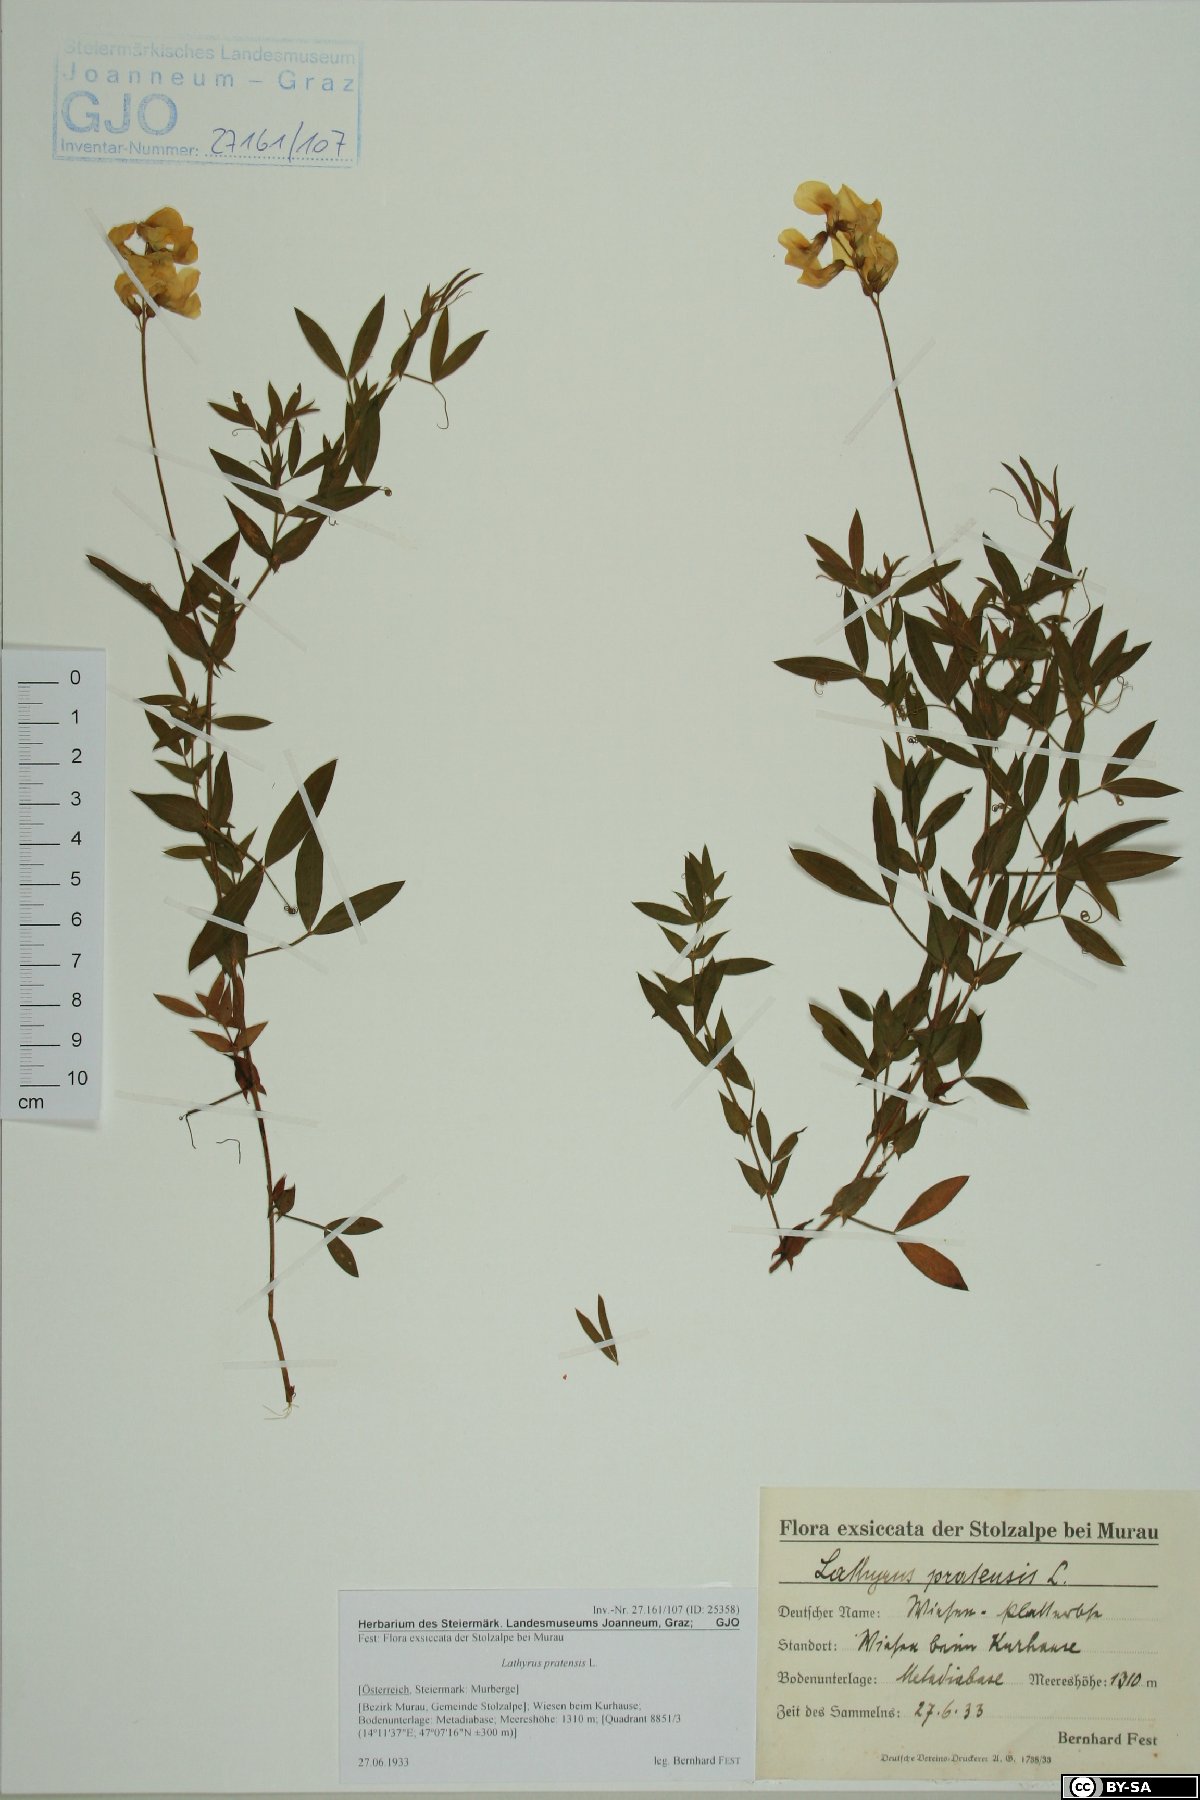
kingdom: Plantae
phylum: Tracheophyta
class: Magnoliopsida
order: Fabales
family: Fabaceae
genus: Lathyrus
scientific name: Lathyrus pratensis
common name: Meadow vetchling
